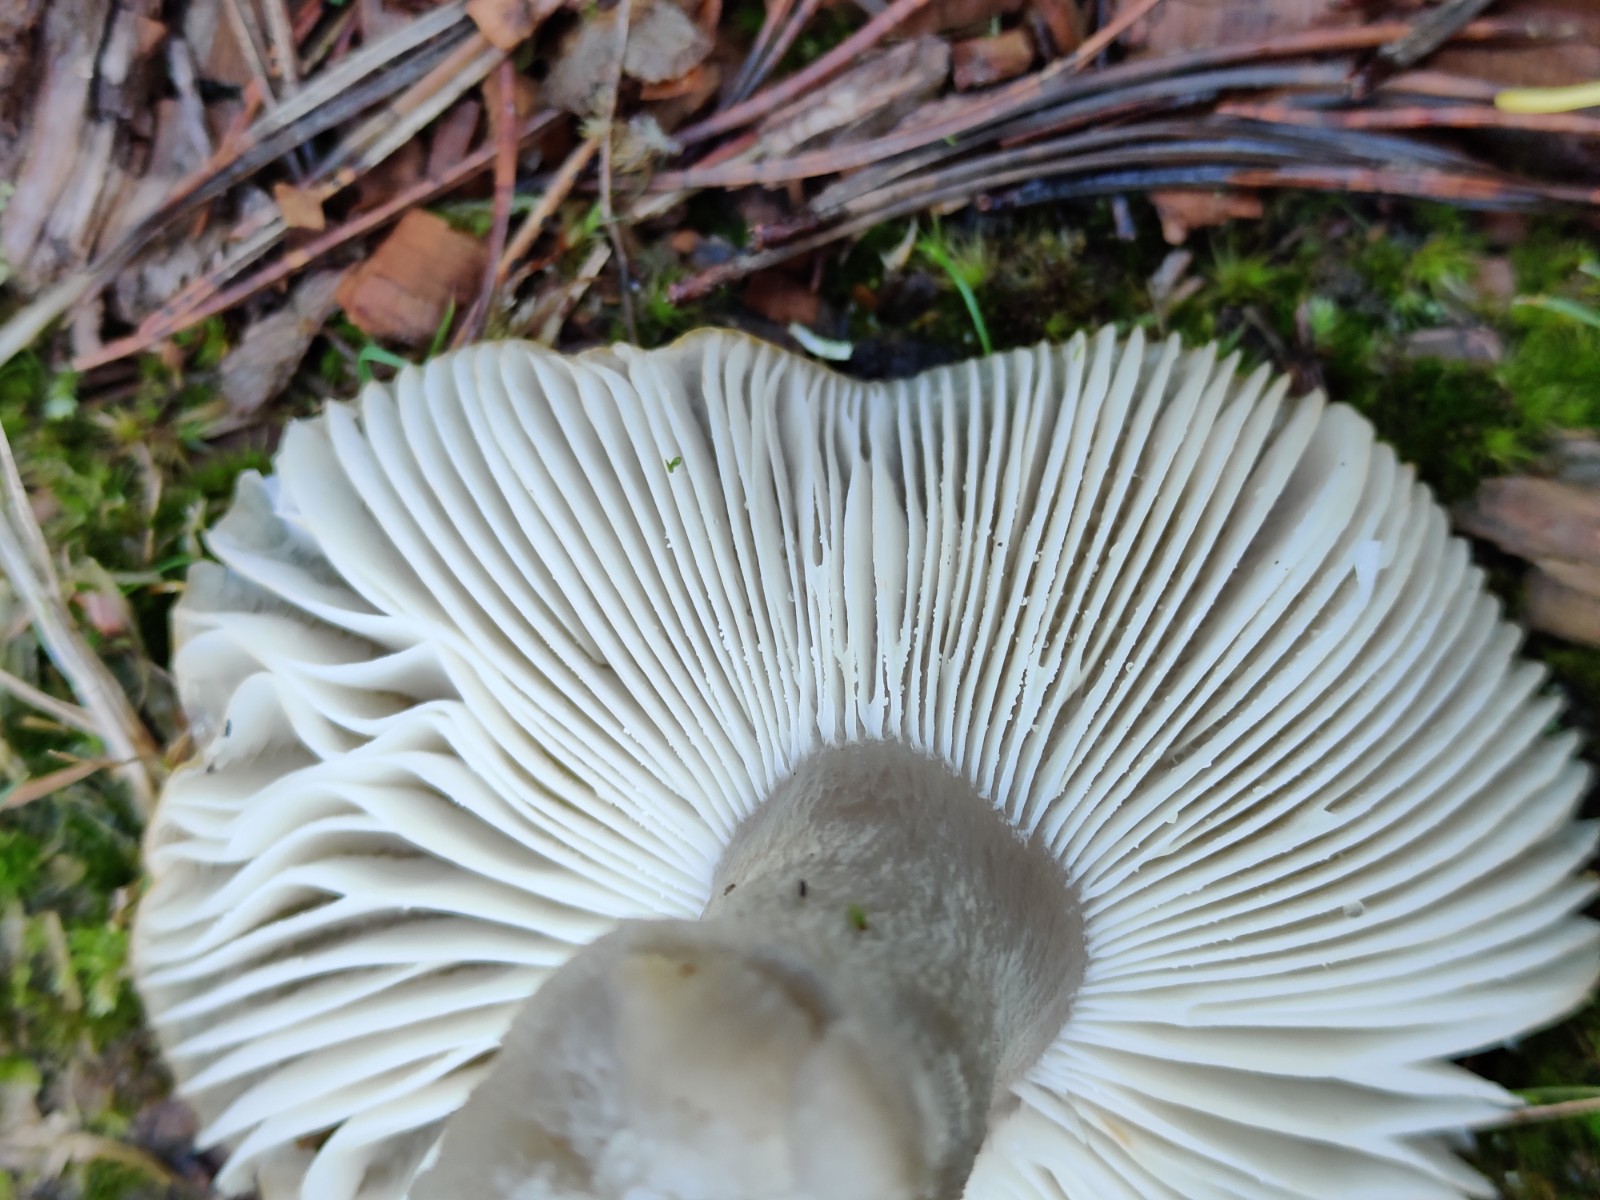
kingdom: Fungi
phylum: Basidiomycota
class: Agaricomycetes
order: Russulales
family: Russulaceae
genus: Russula
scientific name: Russula ochroleuca
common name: okkergul skørhat
